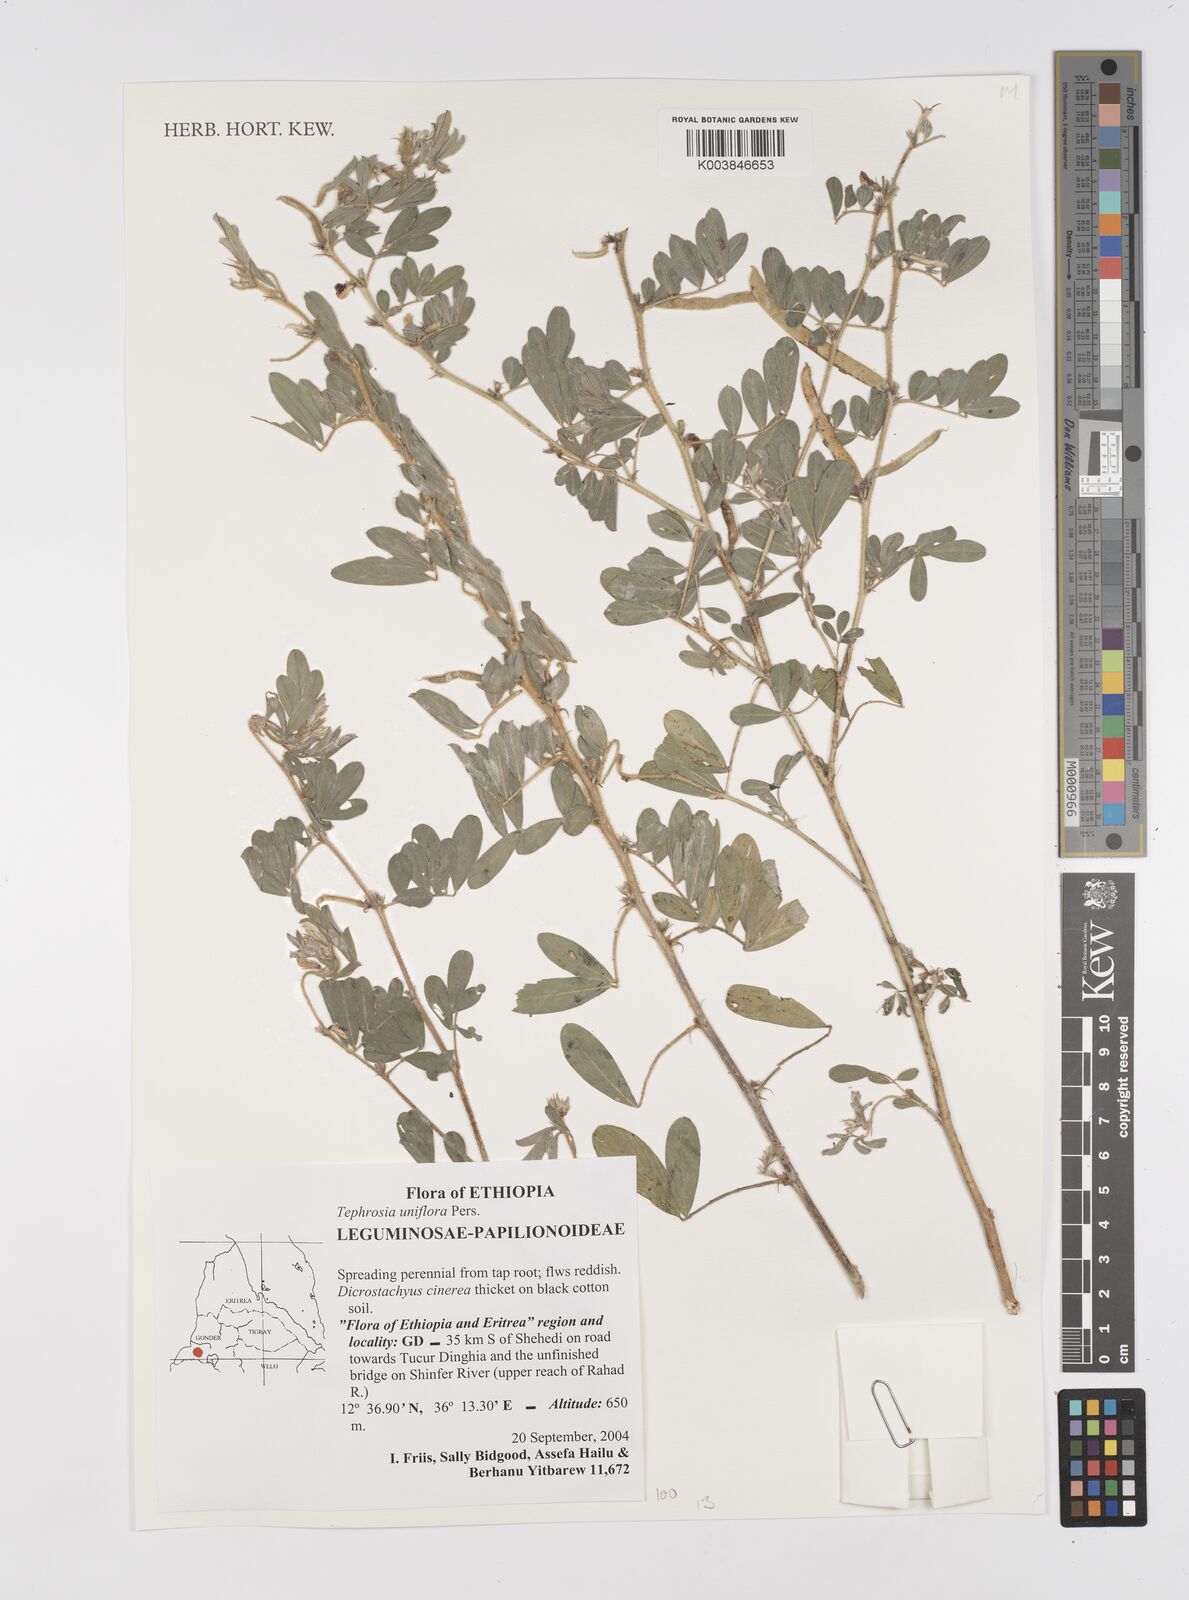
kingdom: Plantae
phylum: Tracheophyta
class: Magnoliopsida
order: Fabales
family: Fabaceae
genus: Tephrosia
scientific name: Tephrosia uniflora
